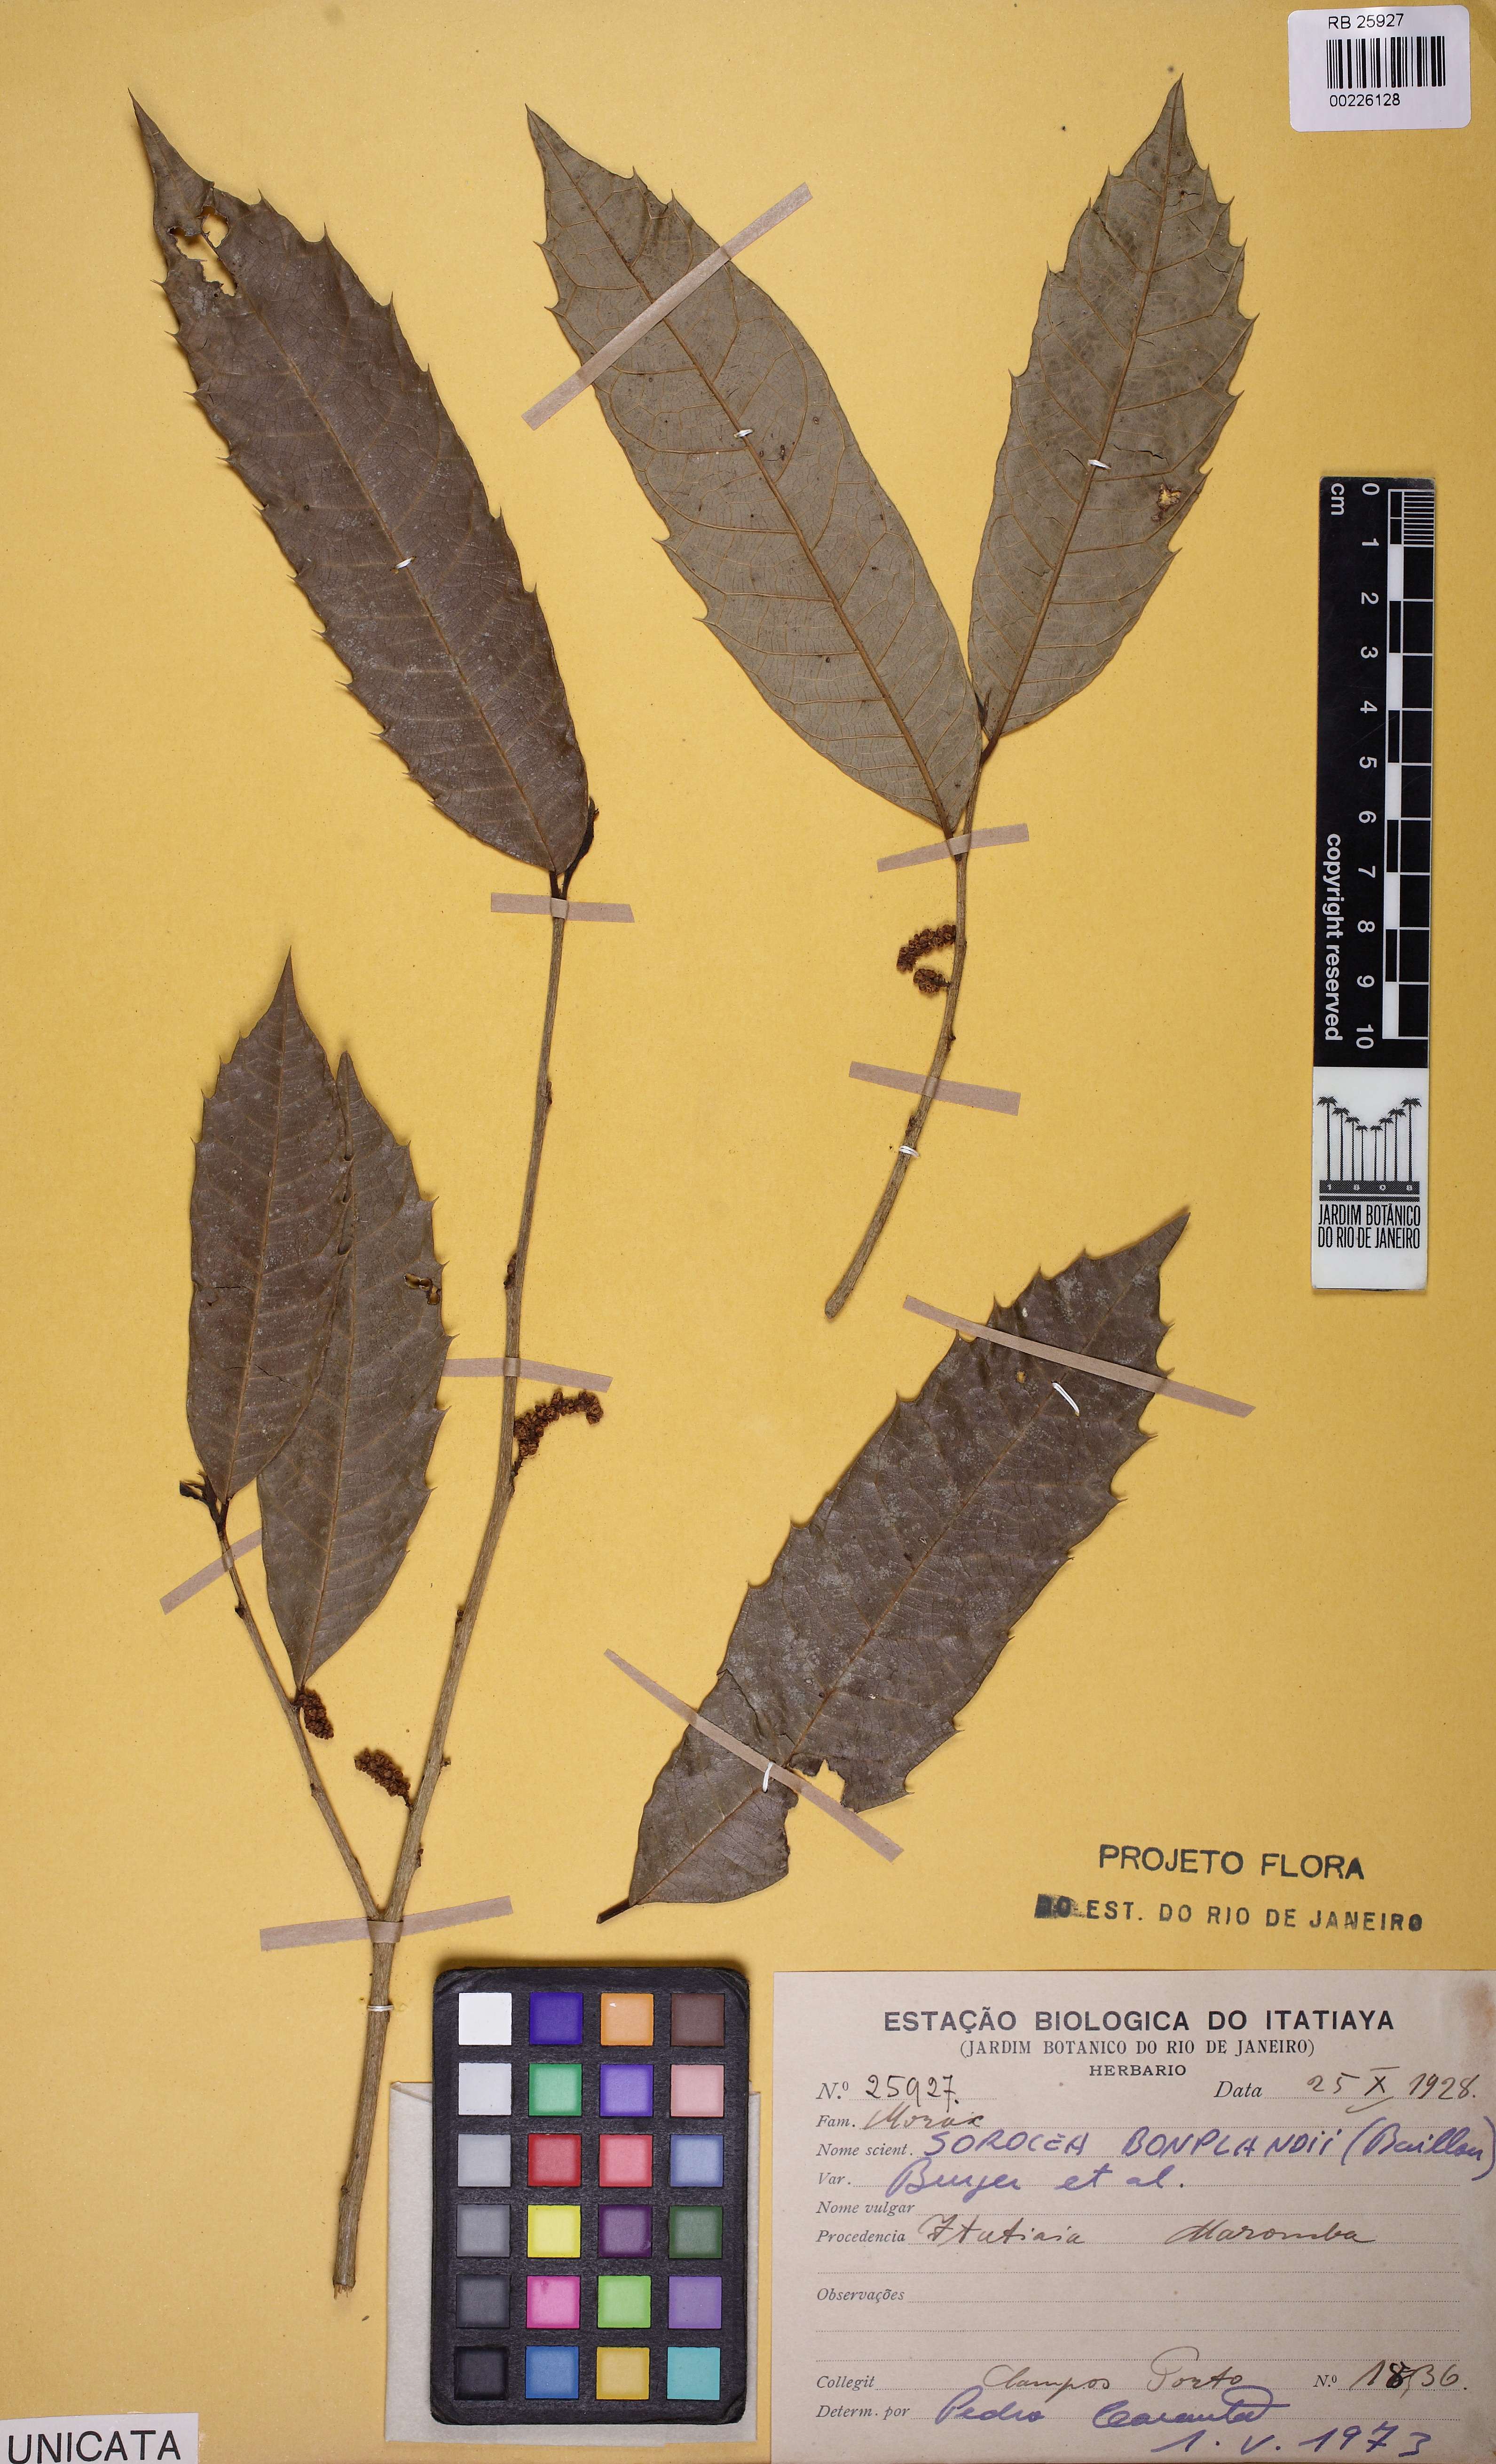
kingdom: Plantae
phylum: Tracheophyta
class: Magnoliopsida
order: Rosales
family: Moraceae
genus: Sorocea
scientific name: Sorocea bonplandii
